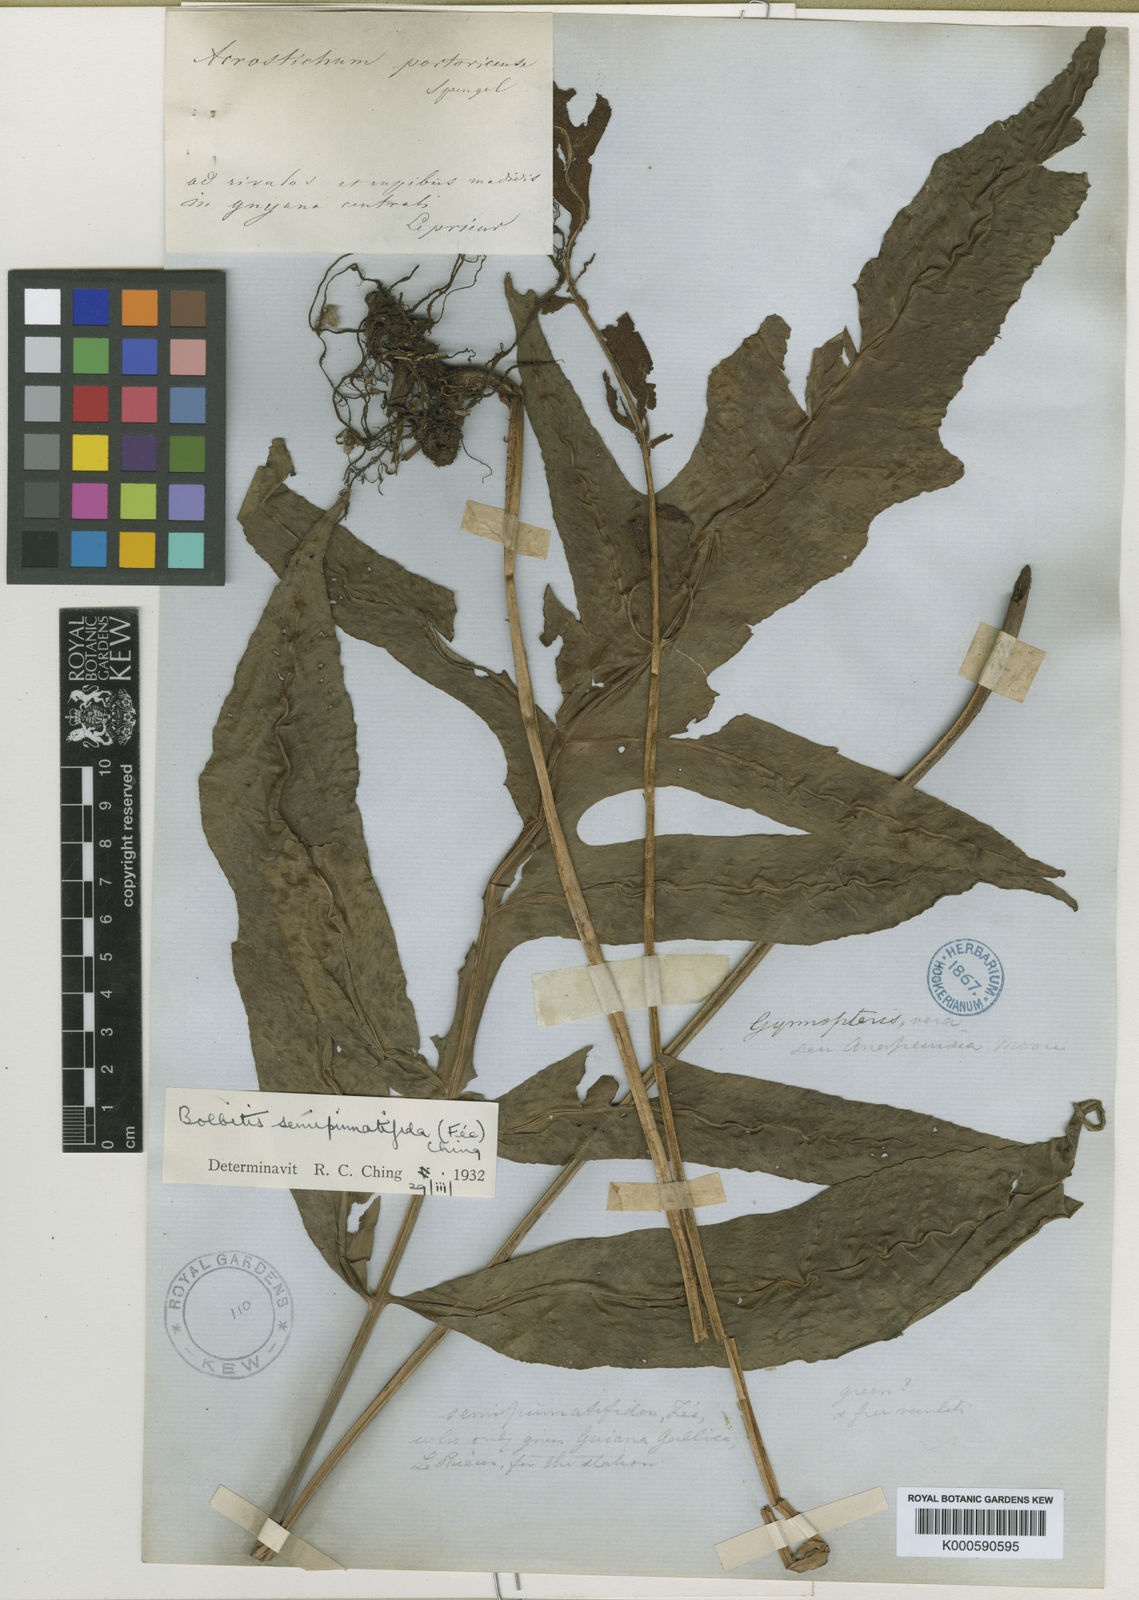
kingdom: Plantae
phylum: Tracheophyta
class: Polypodiopsida
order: Polypodiales
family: Dryopteridaceae
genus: Bolbitis
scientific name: Bolbitis
